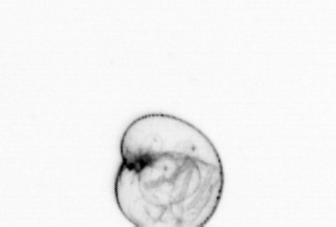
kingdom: Chromista
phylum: Myzozoa
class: Dinophyceae
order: Noctilucales
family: Noctilucaceae
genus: Noctiluca
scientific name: Noctiluca scintillans
